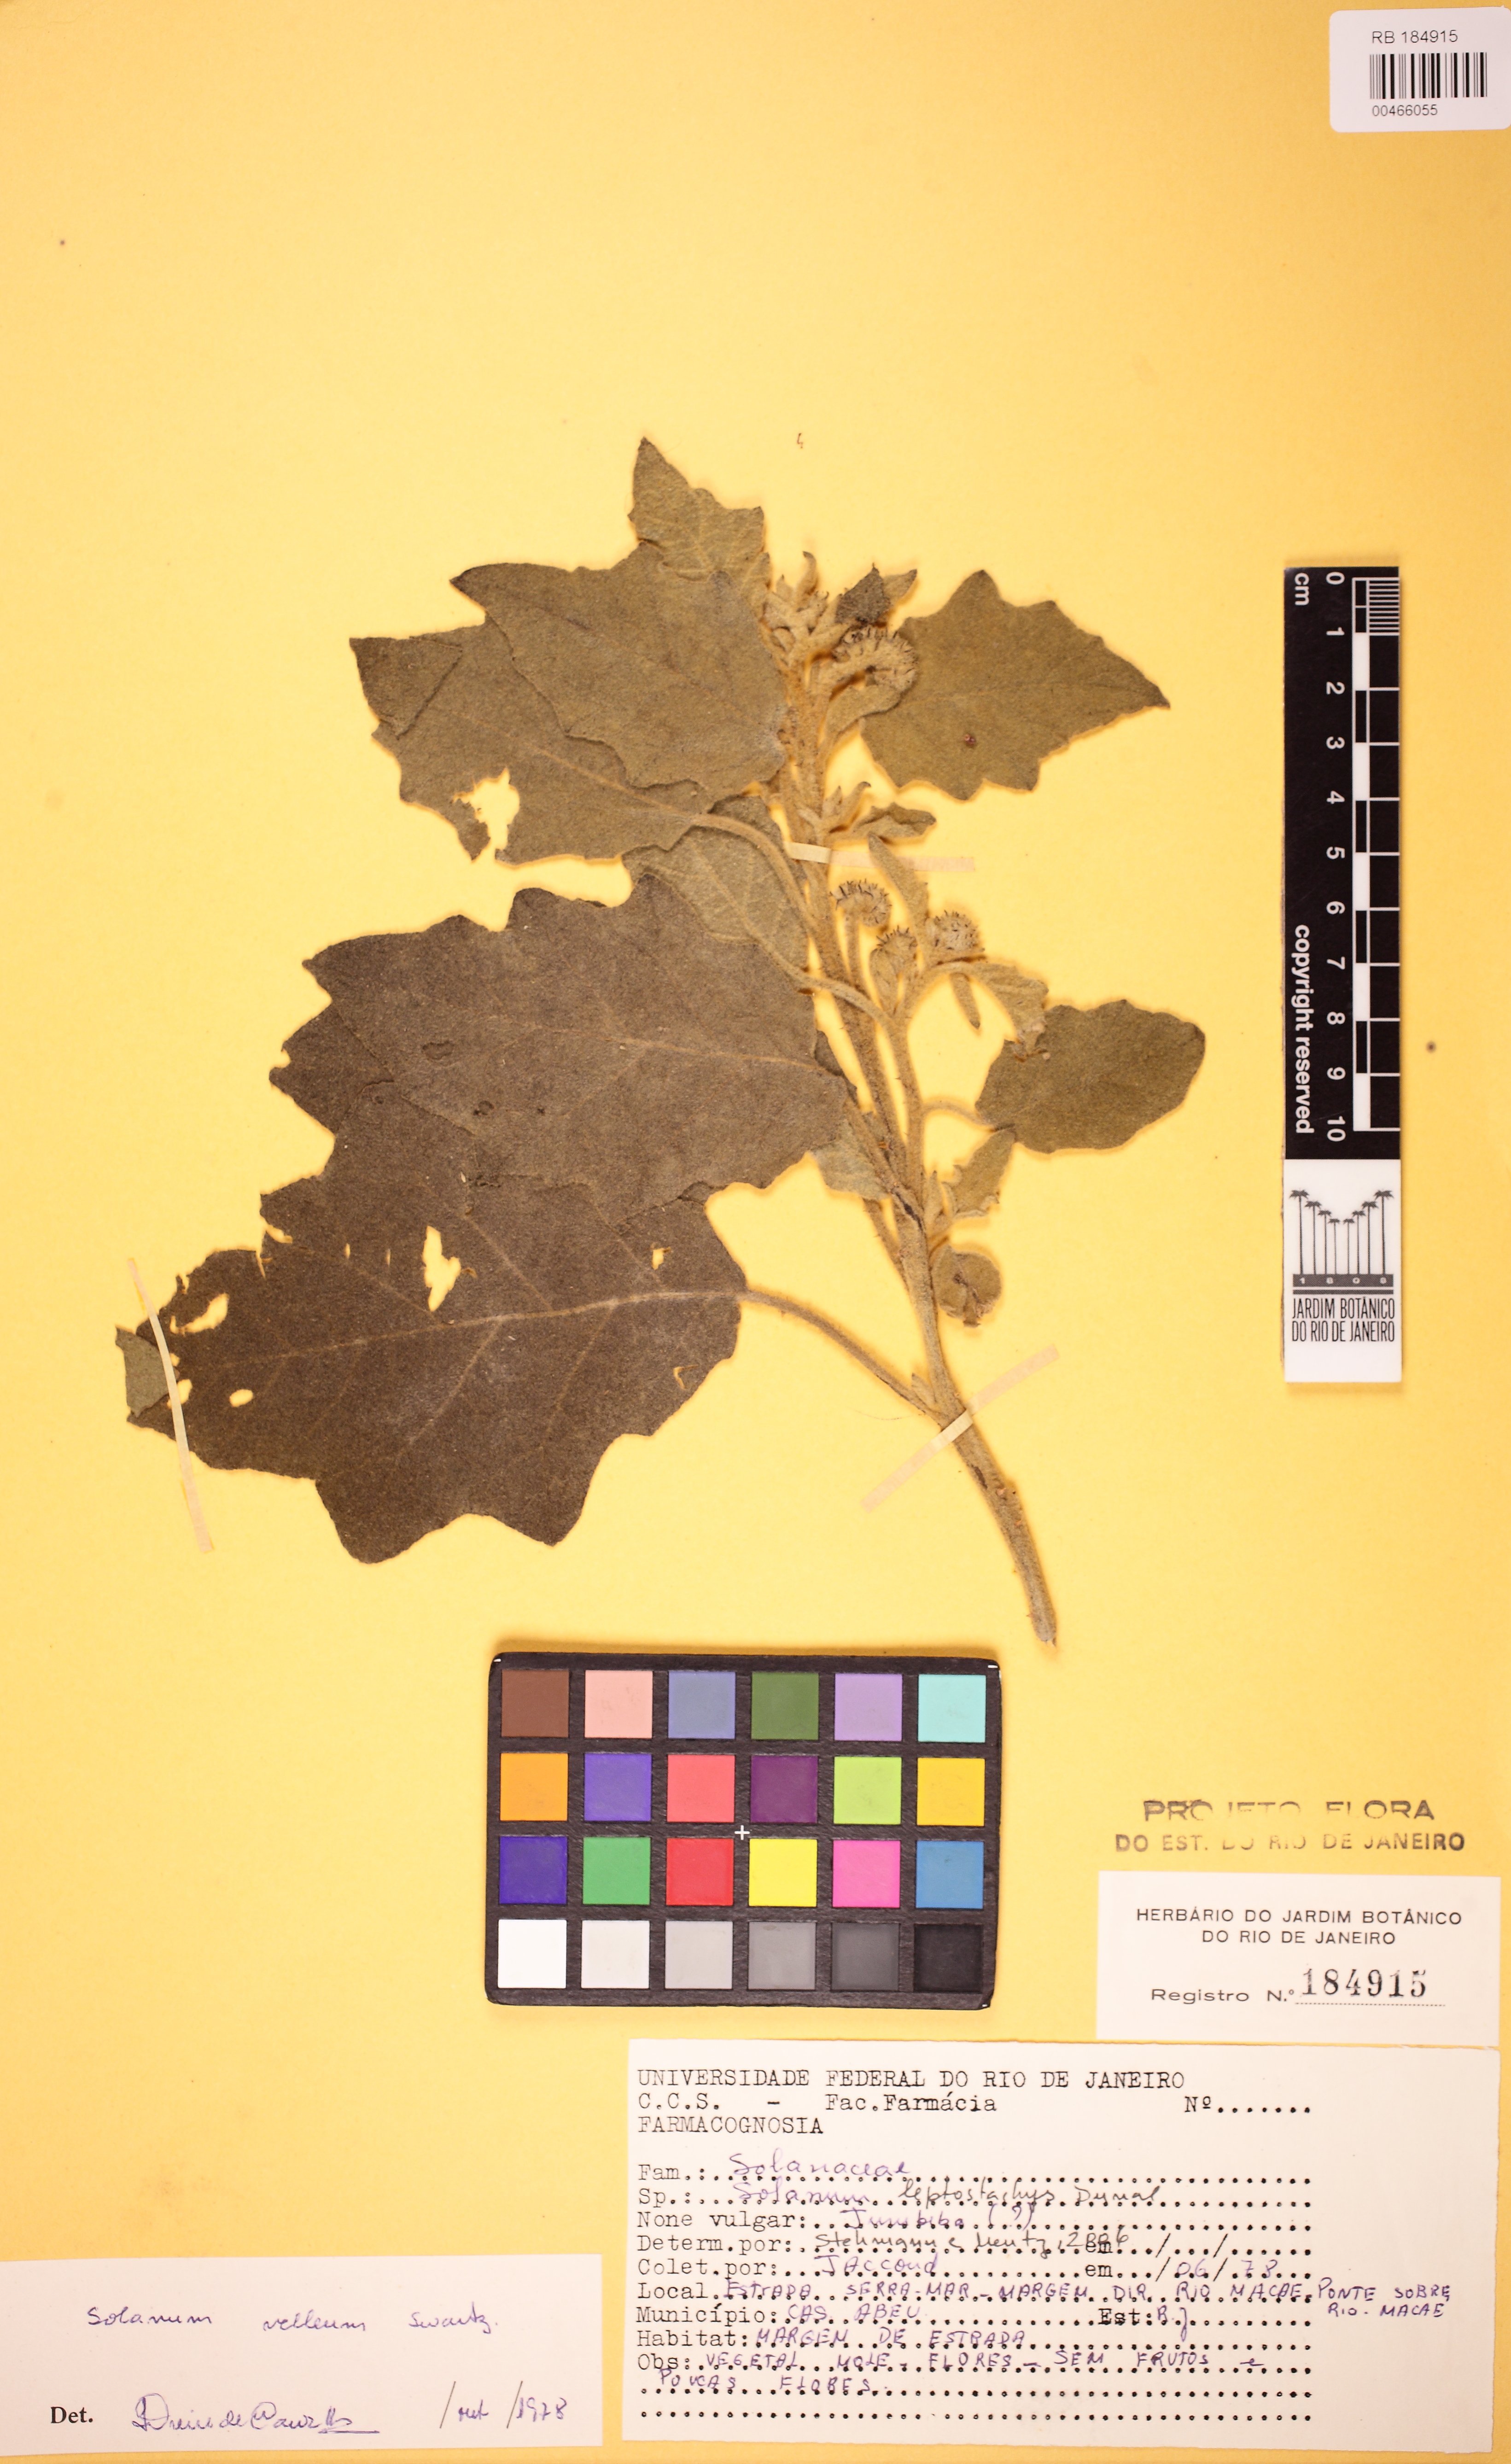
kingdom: Plantae
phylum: Tracheophyta
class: Magnoliopsida
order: Solanales
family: Solanaceae
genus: Solanum
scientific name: Solanum velleum
